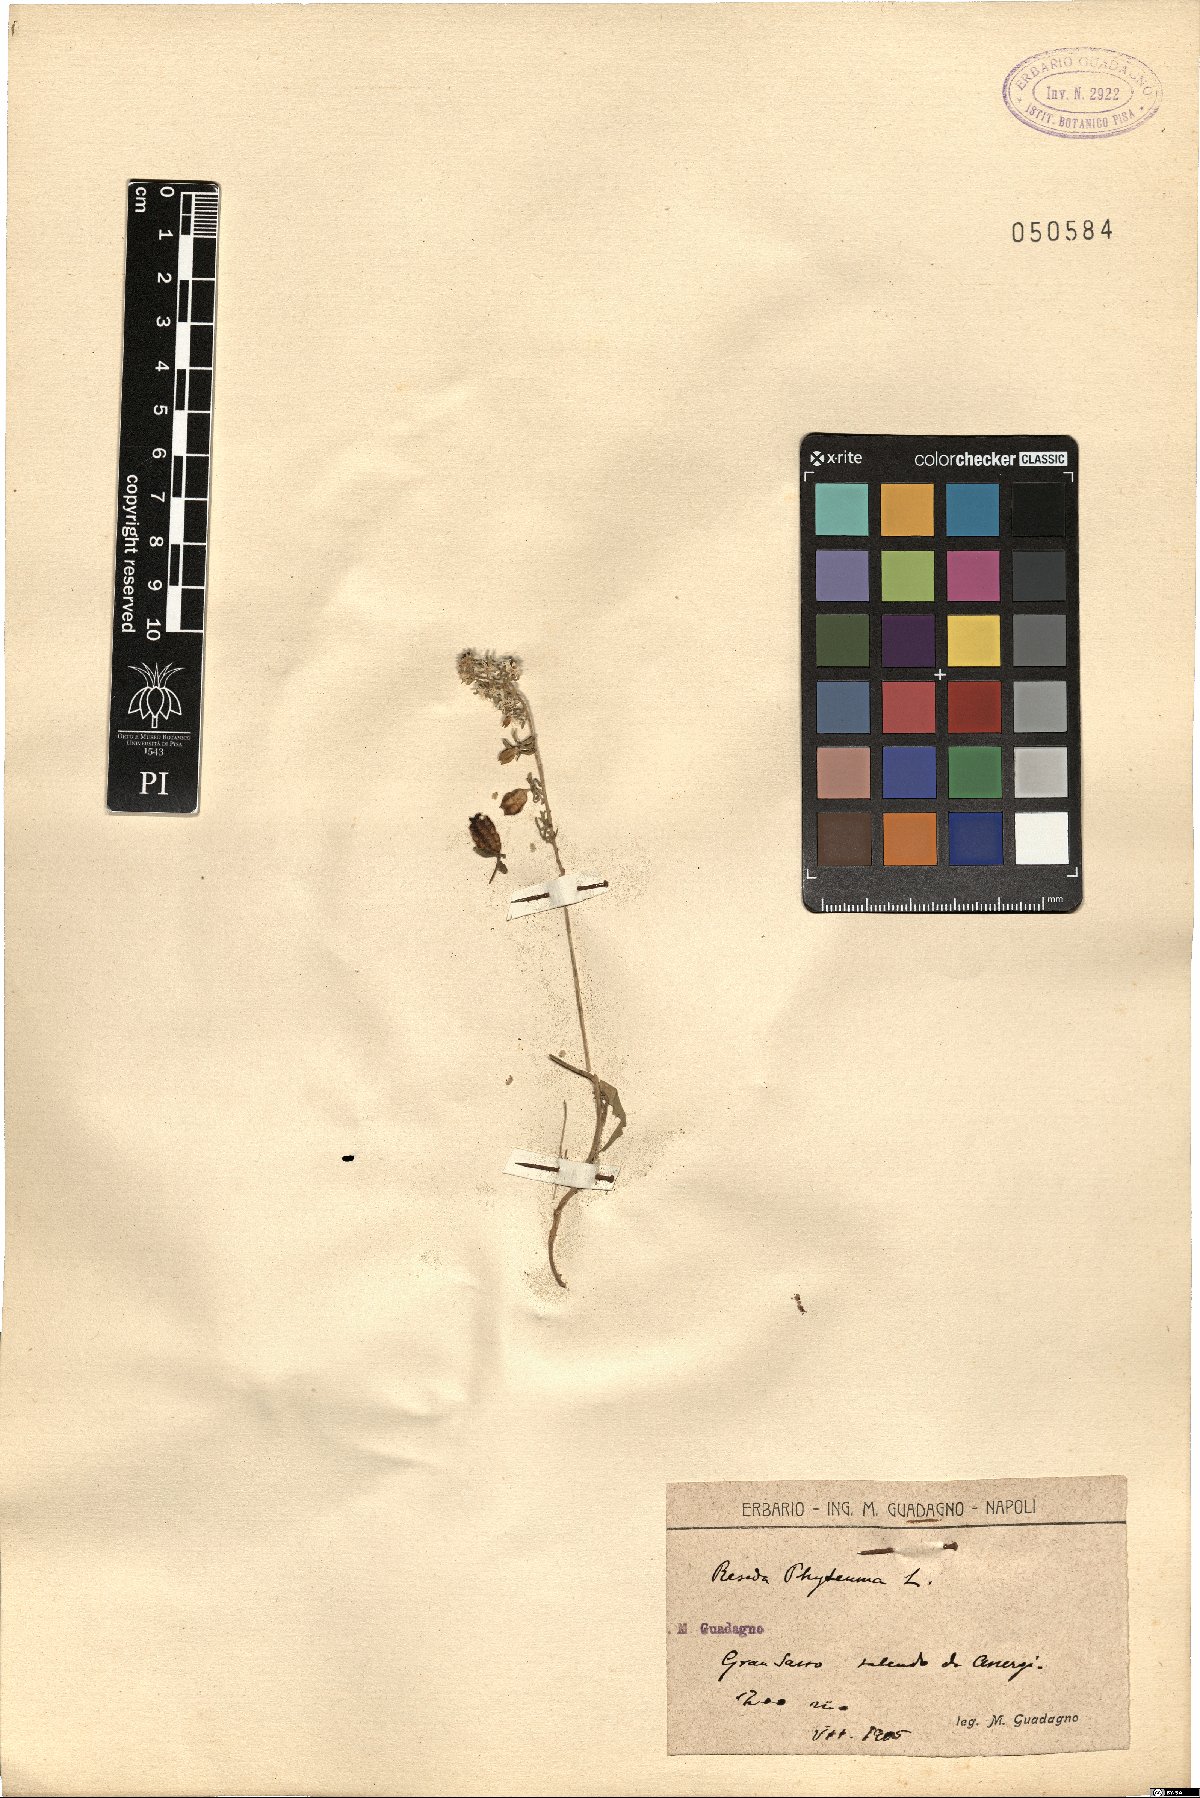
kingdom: Plantae
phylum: Tracheophyta
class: Magnoliopsida
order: Brassicales
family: Resedaceae
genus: Reseda
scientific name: Reseda phyteuma
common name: Corn mignonette
